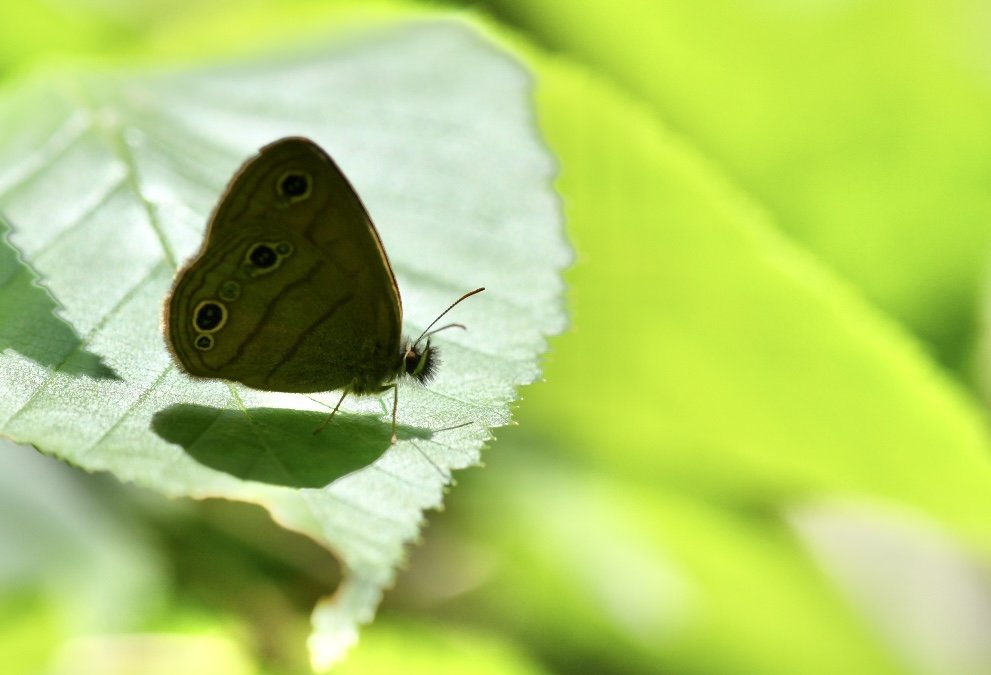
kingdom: Animalia
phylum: Arthropoda
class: Insecta
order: Lepidoptera
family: Nymphalidae
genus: Euptychia
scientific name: Euptychia cymela
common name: Little Wood Satyr
